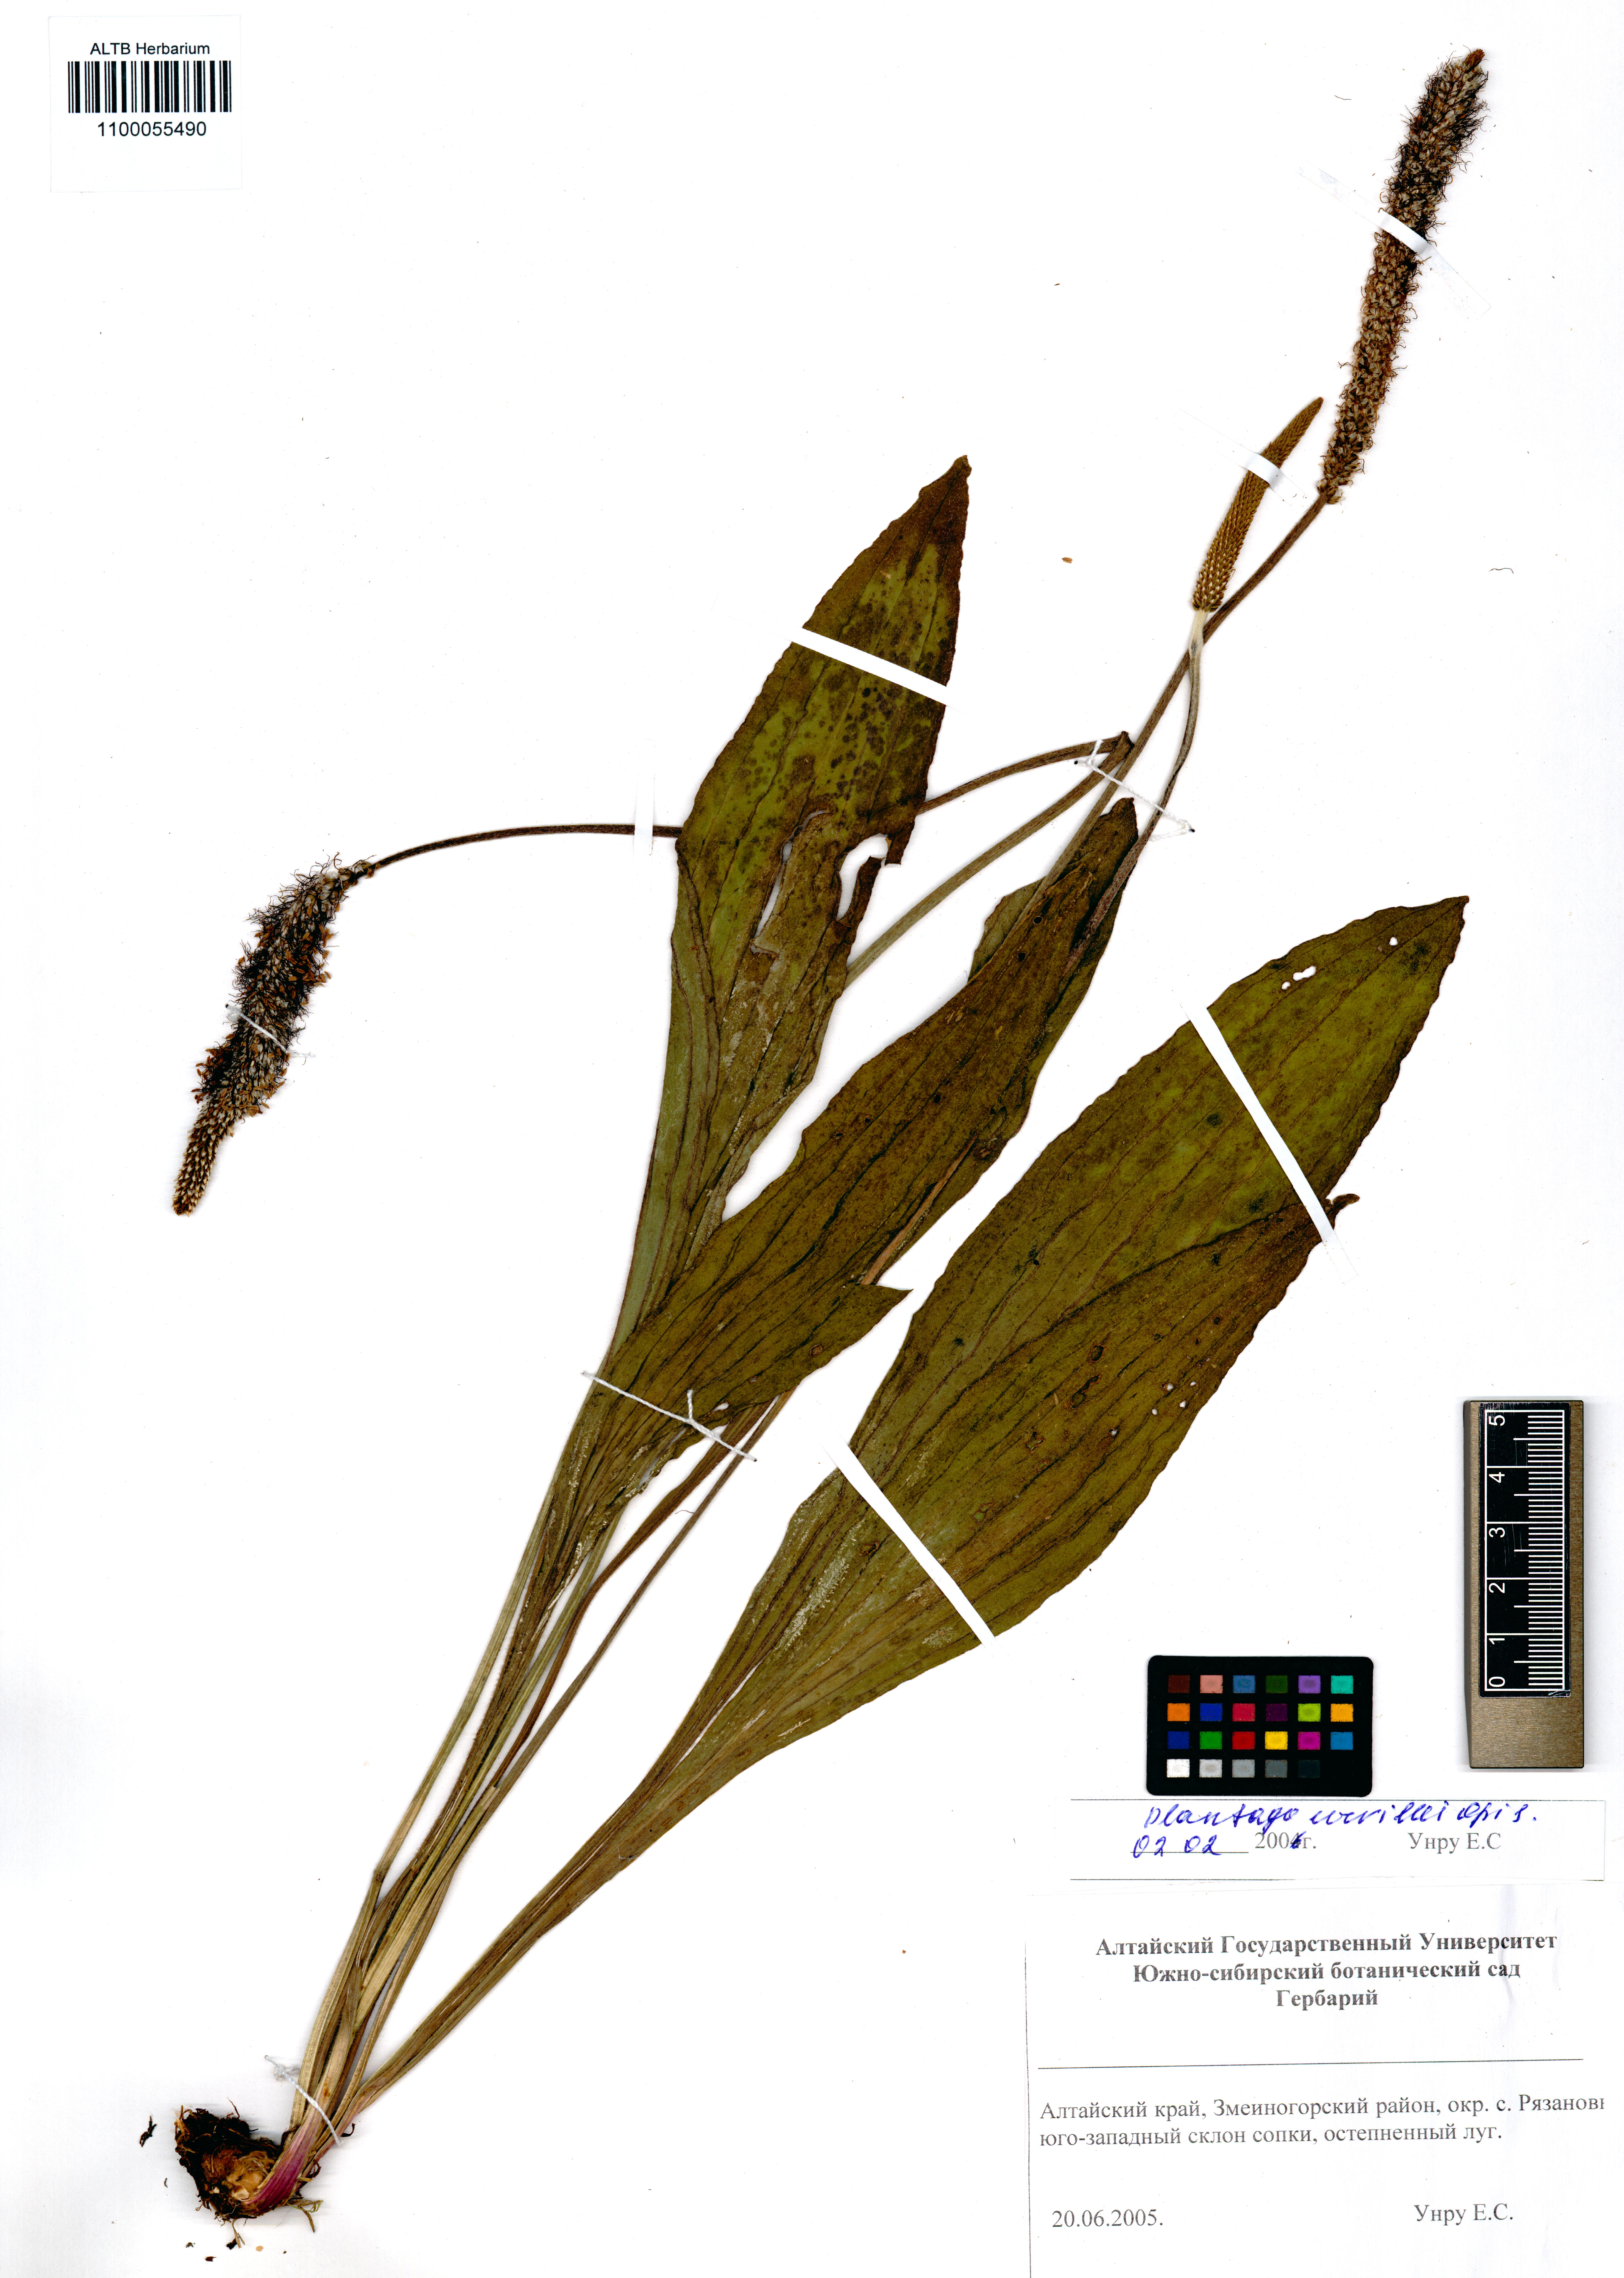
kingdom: Plantae
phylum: Tracheophyta
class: Magnoliopsida
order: Lamiales
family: Plantaginaceae
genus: Plantago
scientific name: Plantago urvillei
